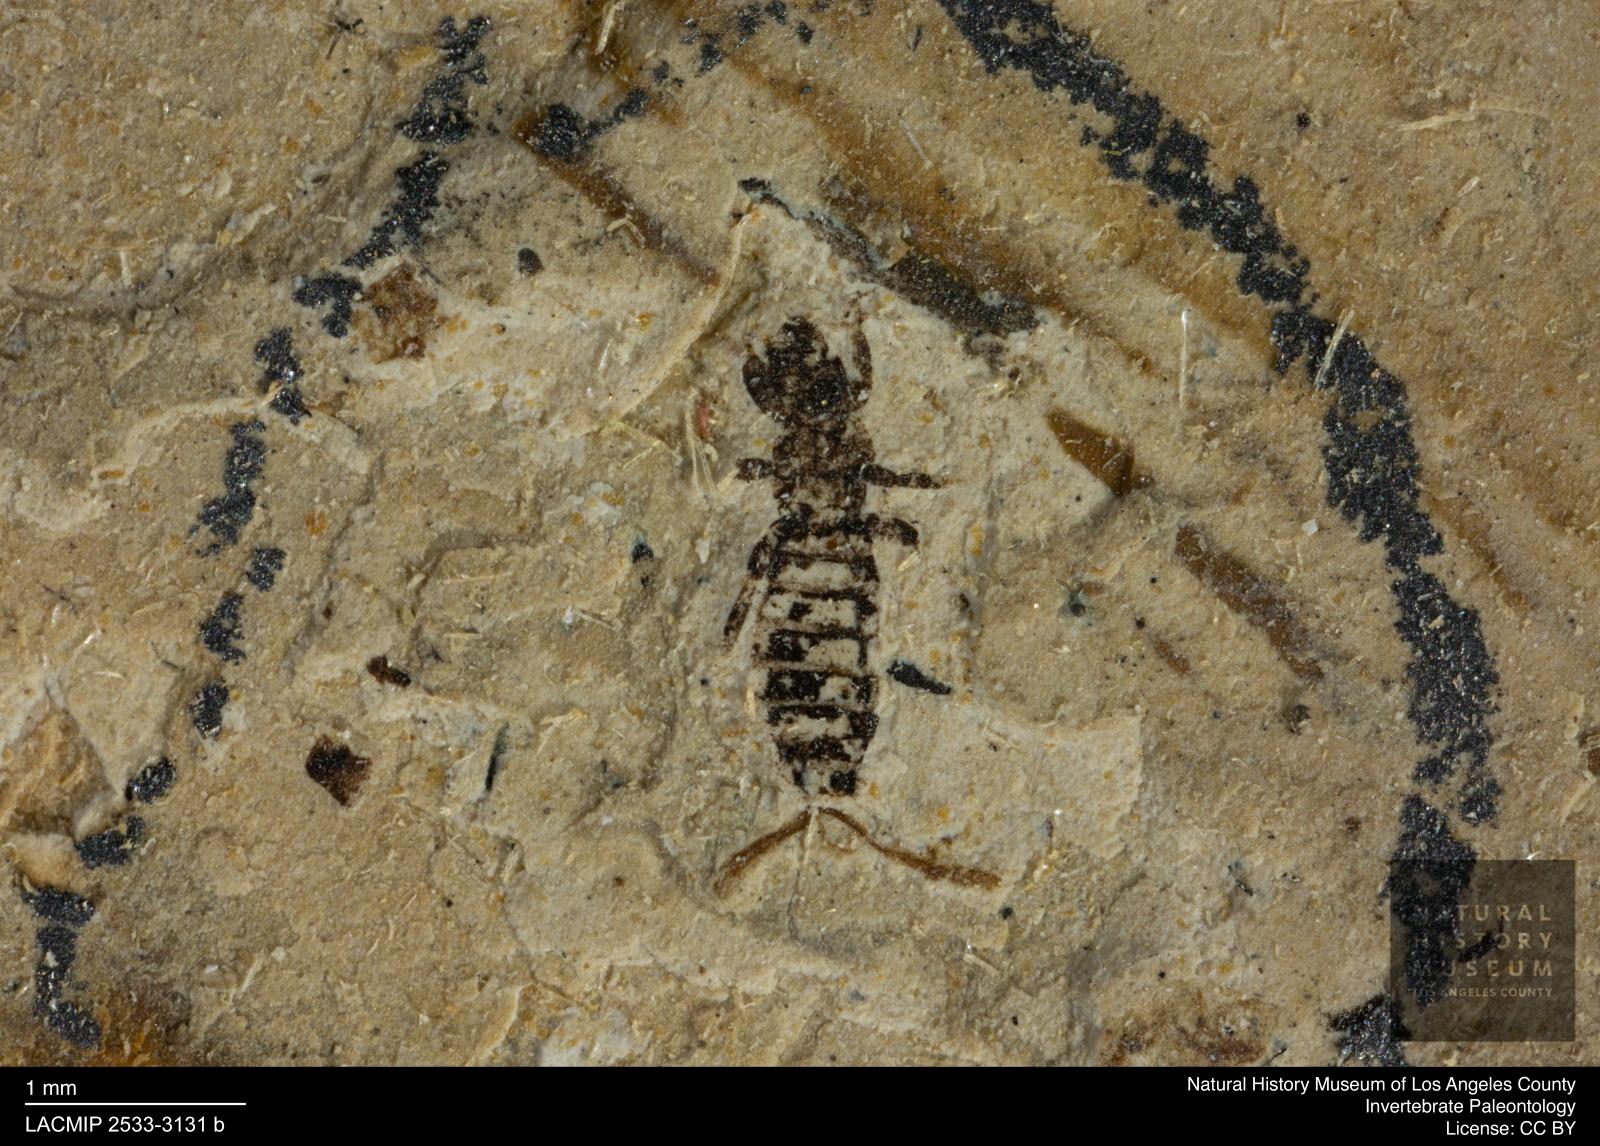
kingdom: Animalia
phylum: Arthropoda
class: Insecta
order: Thysanoptera
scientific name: Thysanoptera
